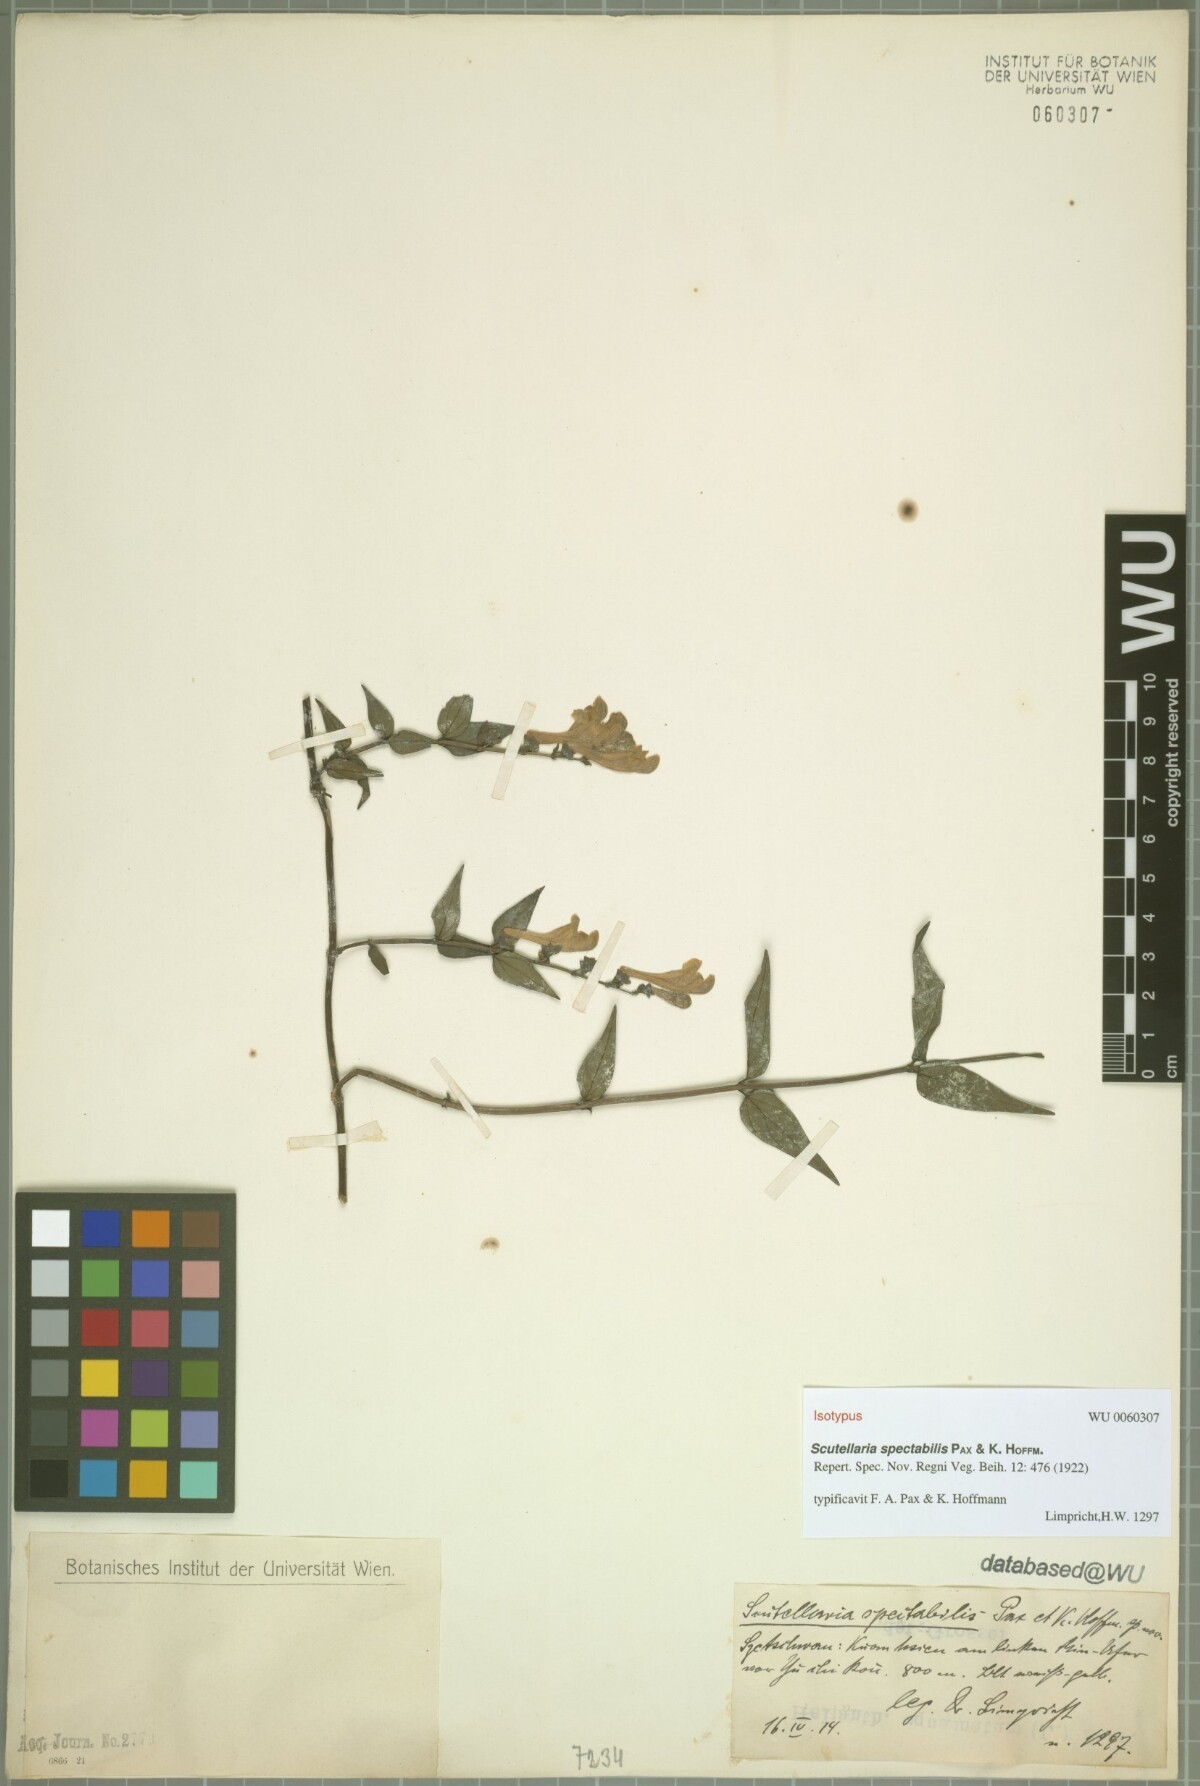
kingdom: Plantae
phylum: Tracheophyta
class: Magnoliopsida
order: Lamiales
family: Lamiaceae
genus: Scutellaria
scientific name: Scutellaria delavayi
